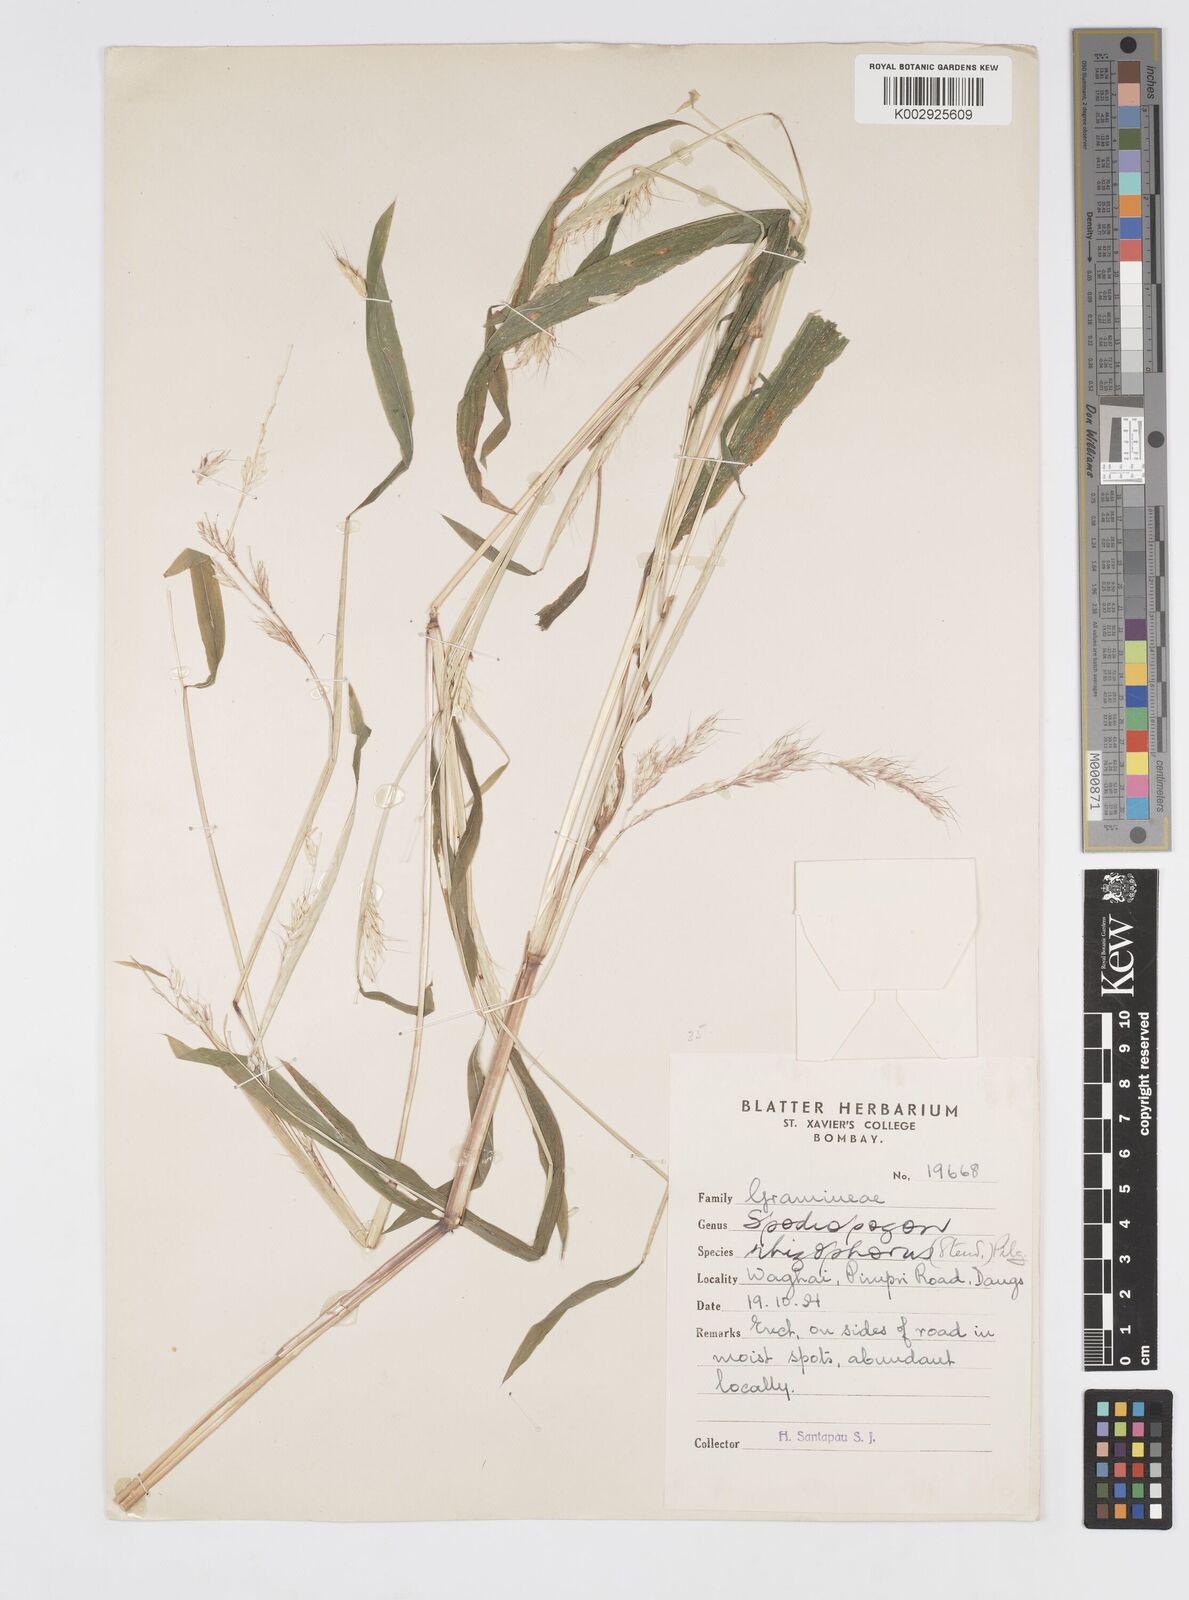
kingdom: Plantae
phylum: Tracheophyta
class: Liliopsida
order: Poales
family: Poaceae
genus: Spodiopogon
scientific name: Spodiopogon rhizophorus
